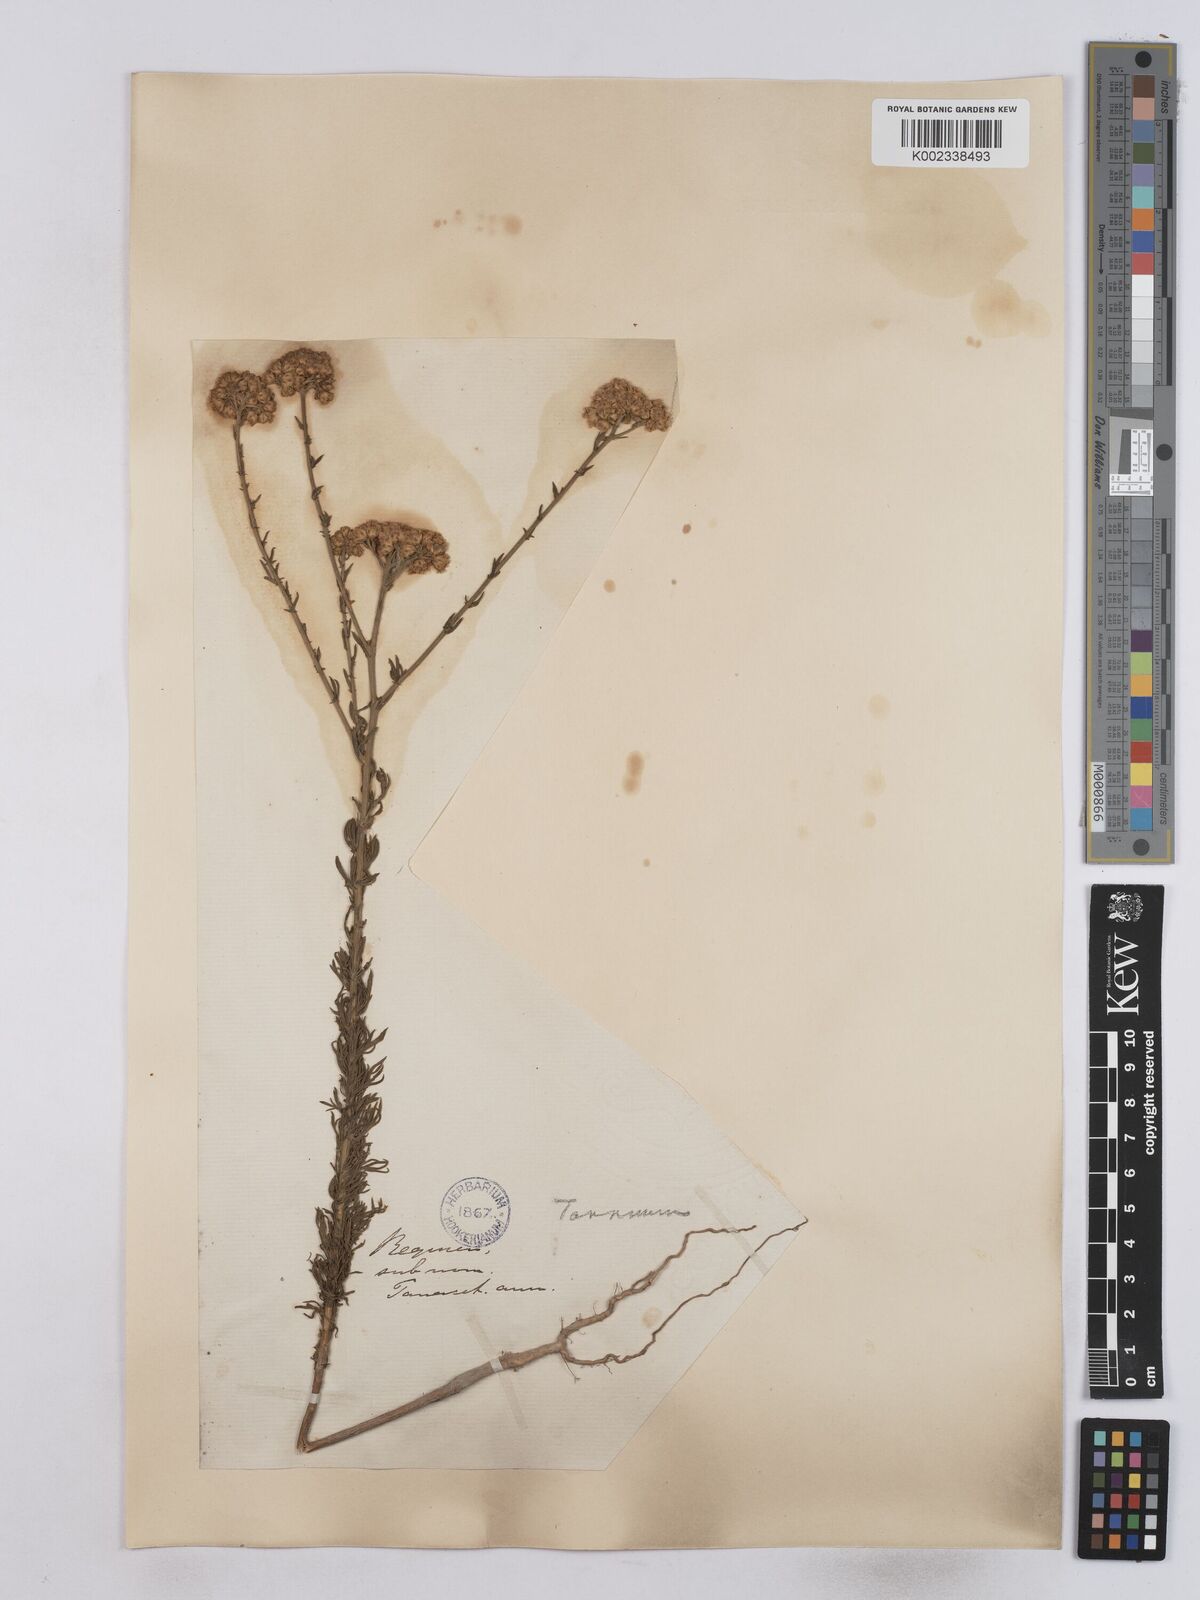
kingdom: Plantae
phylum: Tracheophyta
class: Magnoliopsida
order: Asterales
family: Asteraceae
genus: Vogtia
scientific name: Vogtia annua
